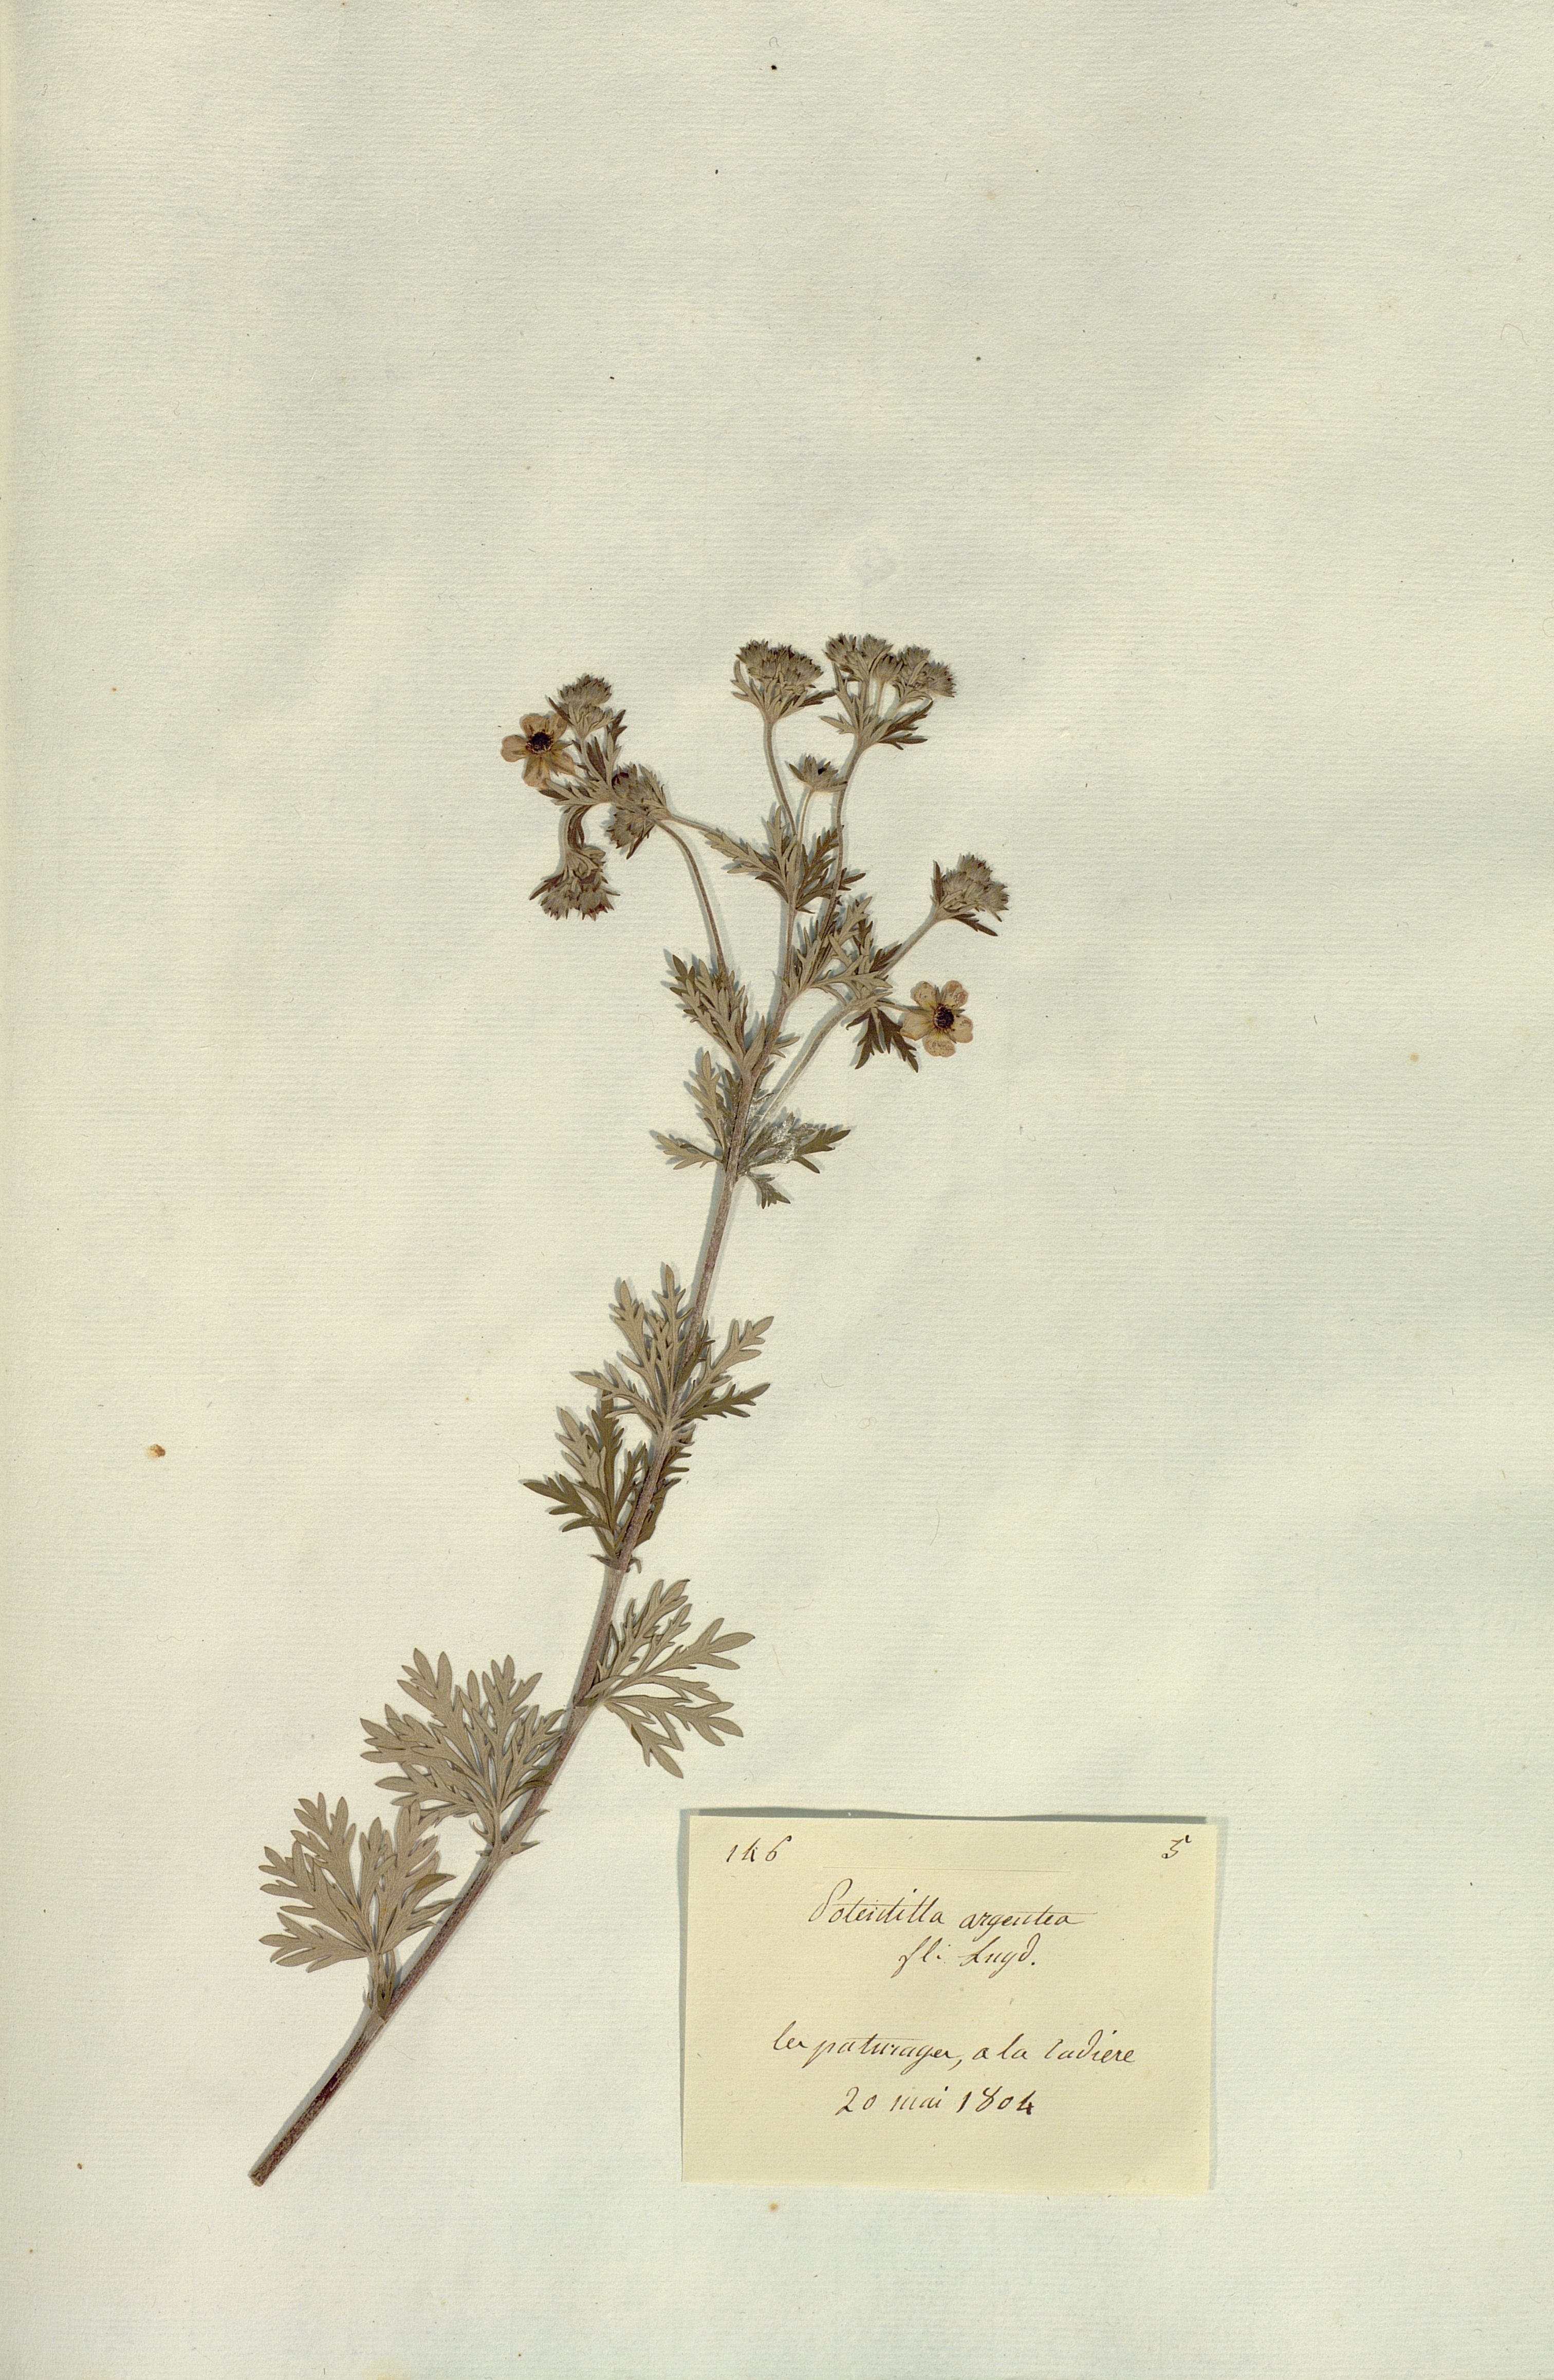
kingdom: Plantae
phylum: Tracheophyta
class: Magnoliopsida
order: Rosales
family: Rosaceae
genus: Potentilla
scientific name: Potentilla argentea
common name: Hoary cinquefoil
